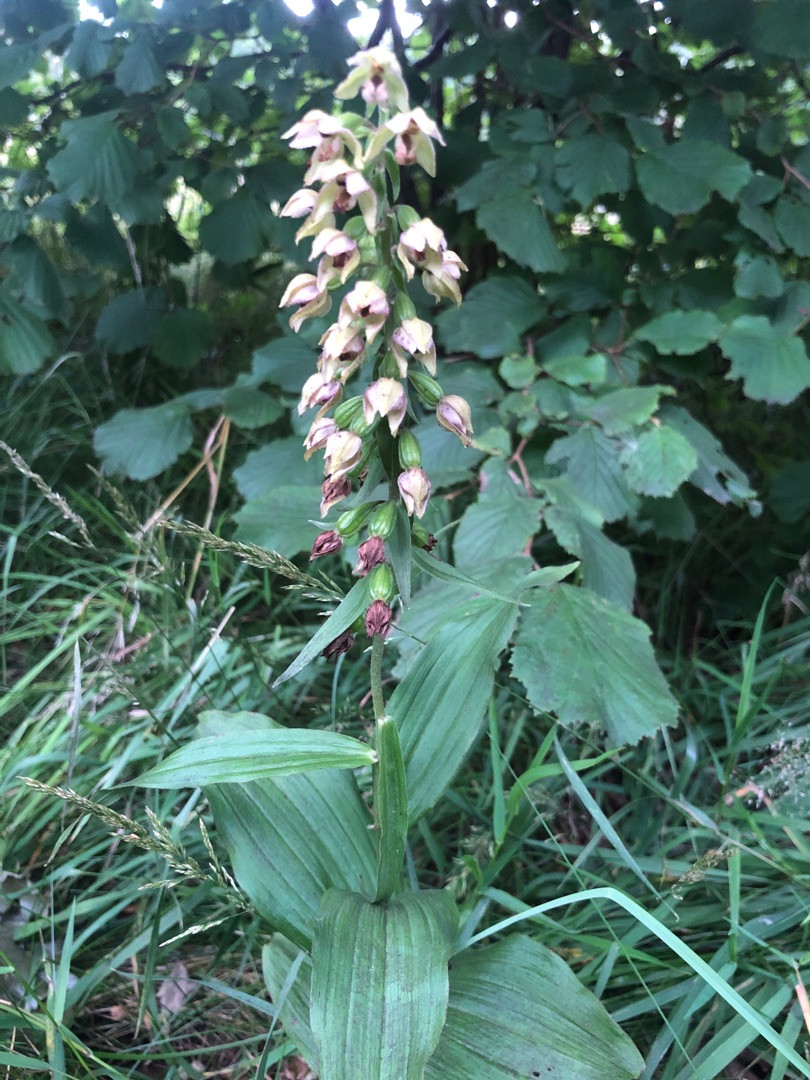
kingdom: Plantae
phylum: Tracheophyta
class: Liliopsida
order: Asparagales
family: Orchidaceae
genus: Epipactis
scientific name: Epipactis helleborine
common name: Skov-hullæbe
